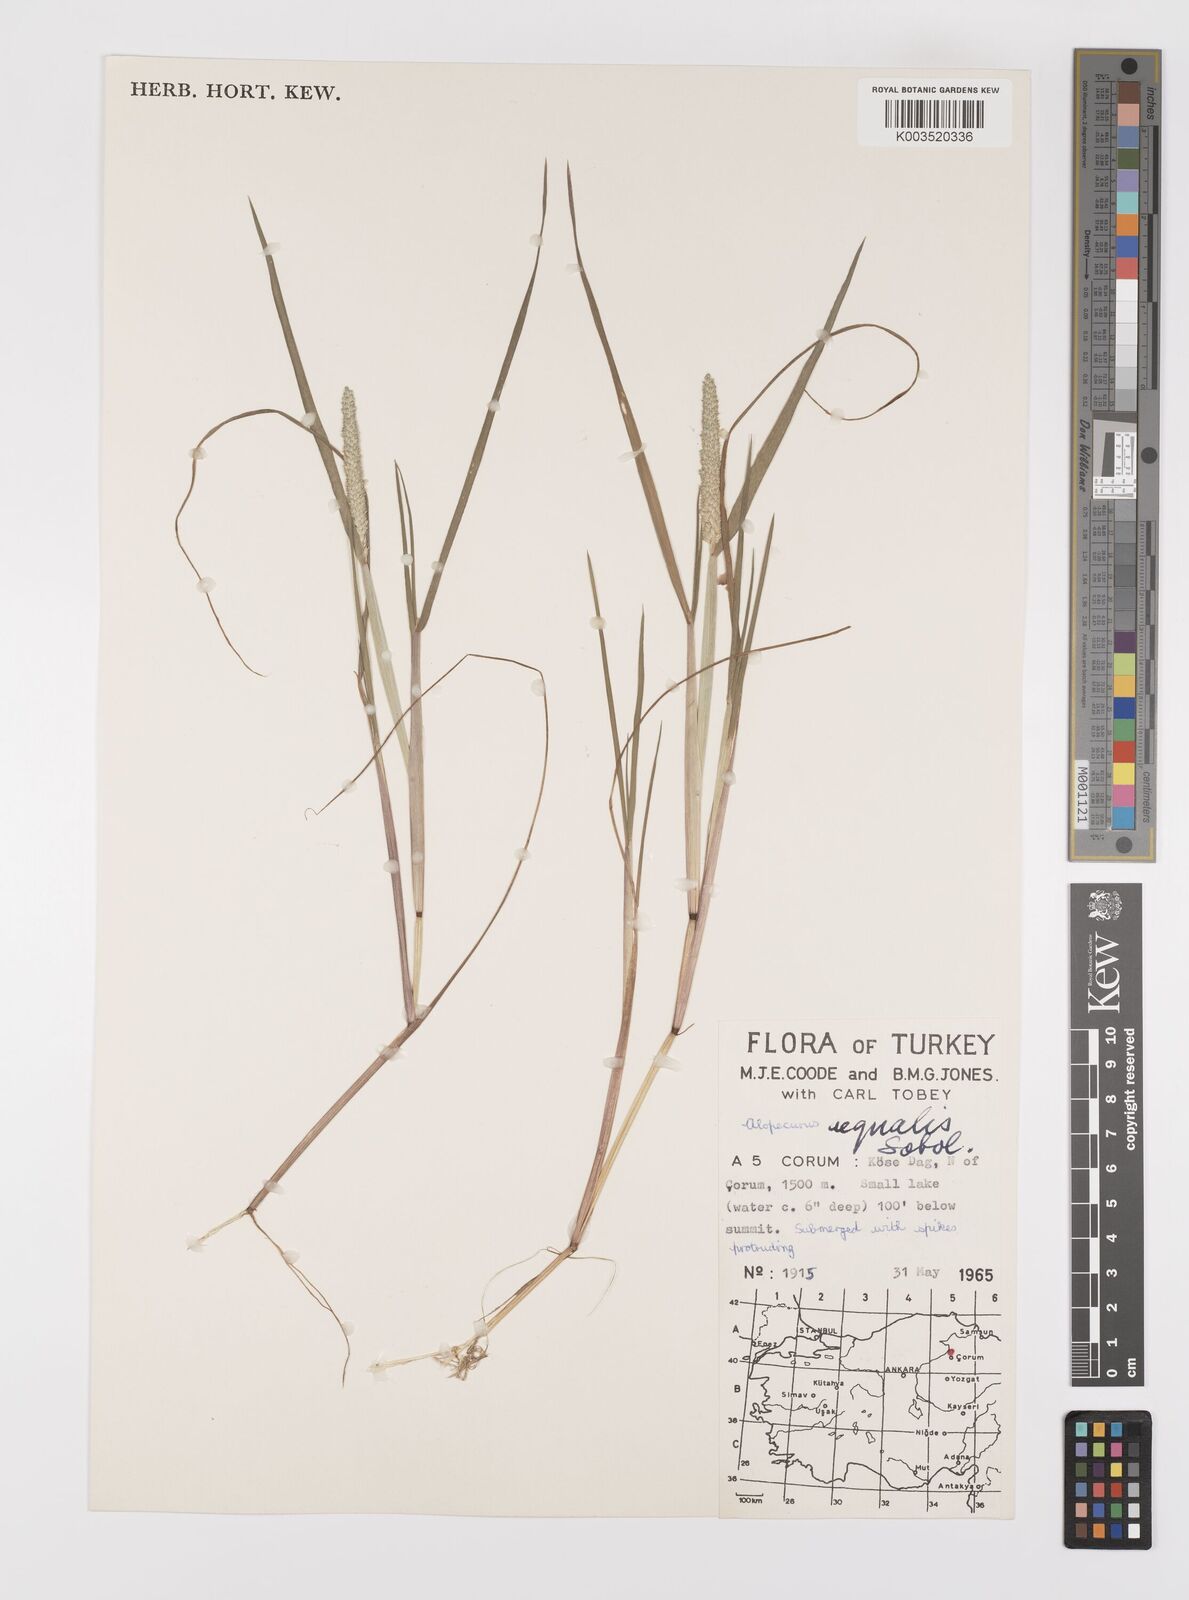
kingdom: Plantae
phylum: Tracheophyta
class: Liliopsida
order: Poales
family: Poaceae
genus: Alopecurus
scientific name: Alopecurus aequalis
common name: Orange foxtail
